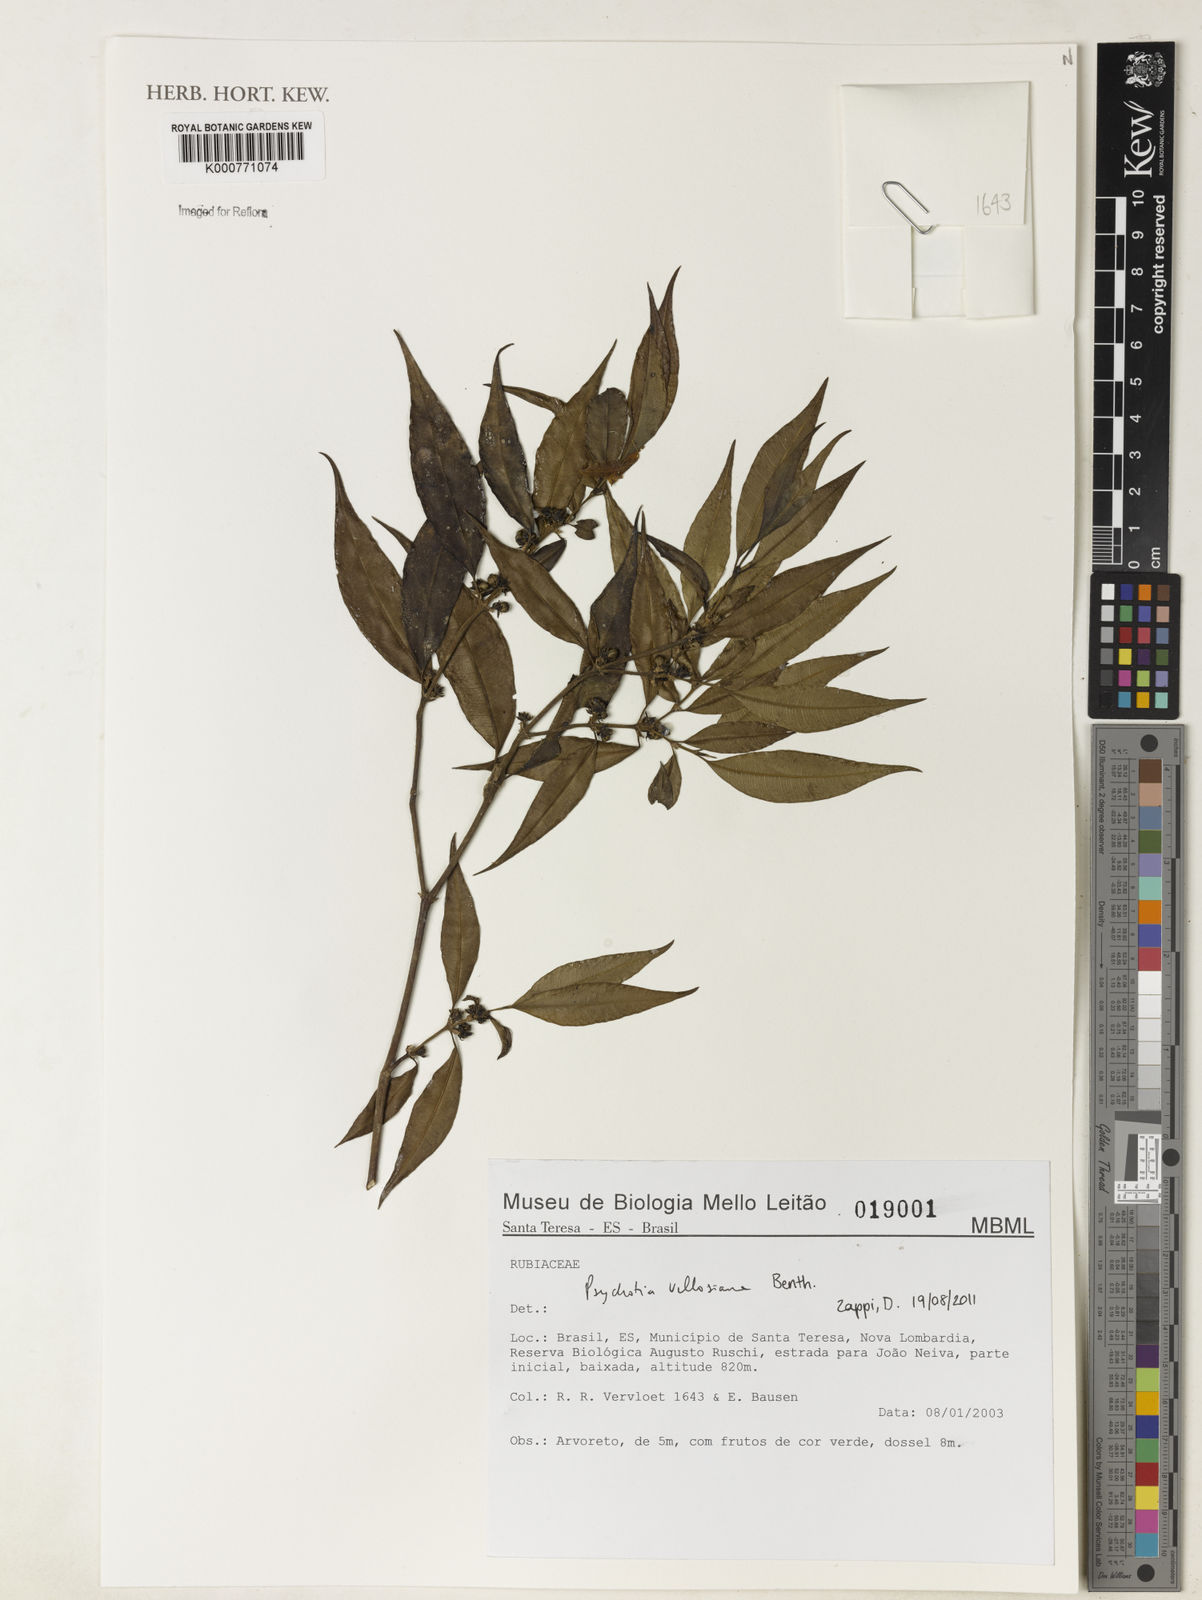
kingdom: Plantae
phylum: Tracheophyta
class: Magnoliopsida
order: Gentianales
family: Rubiaceae
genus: Palicourea
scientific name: Palicourea sessilis
